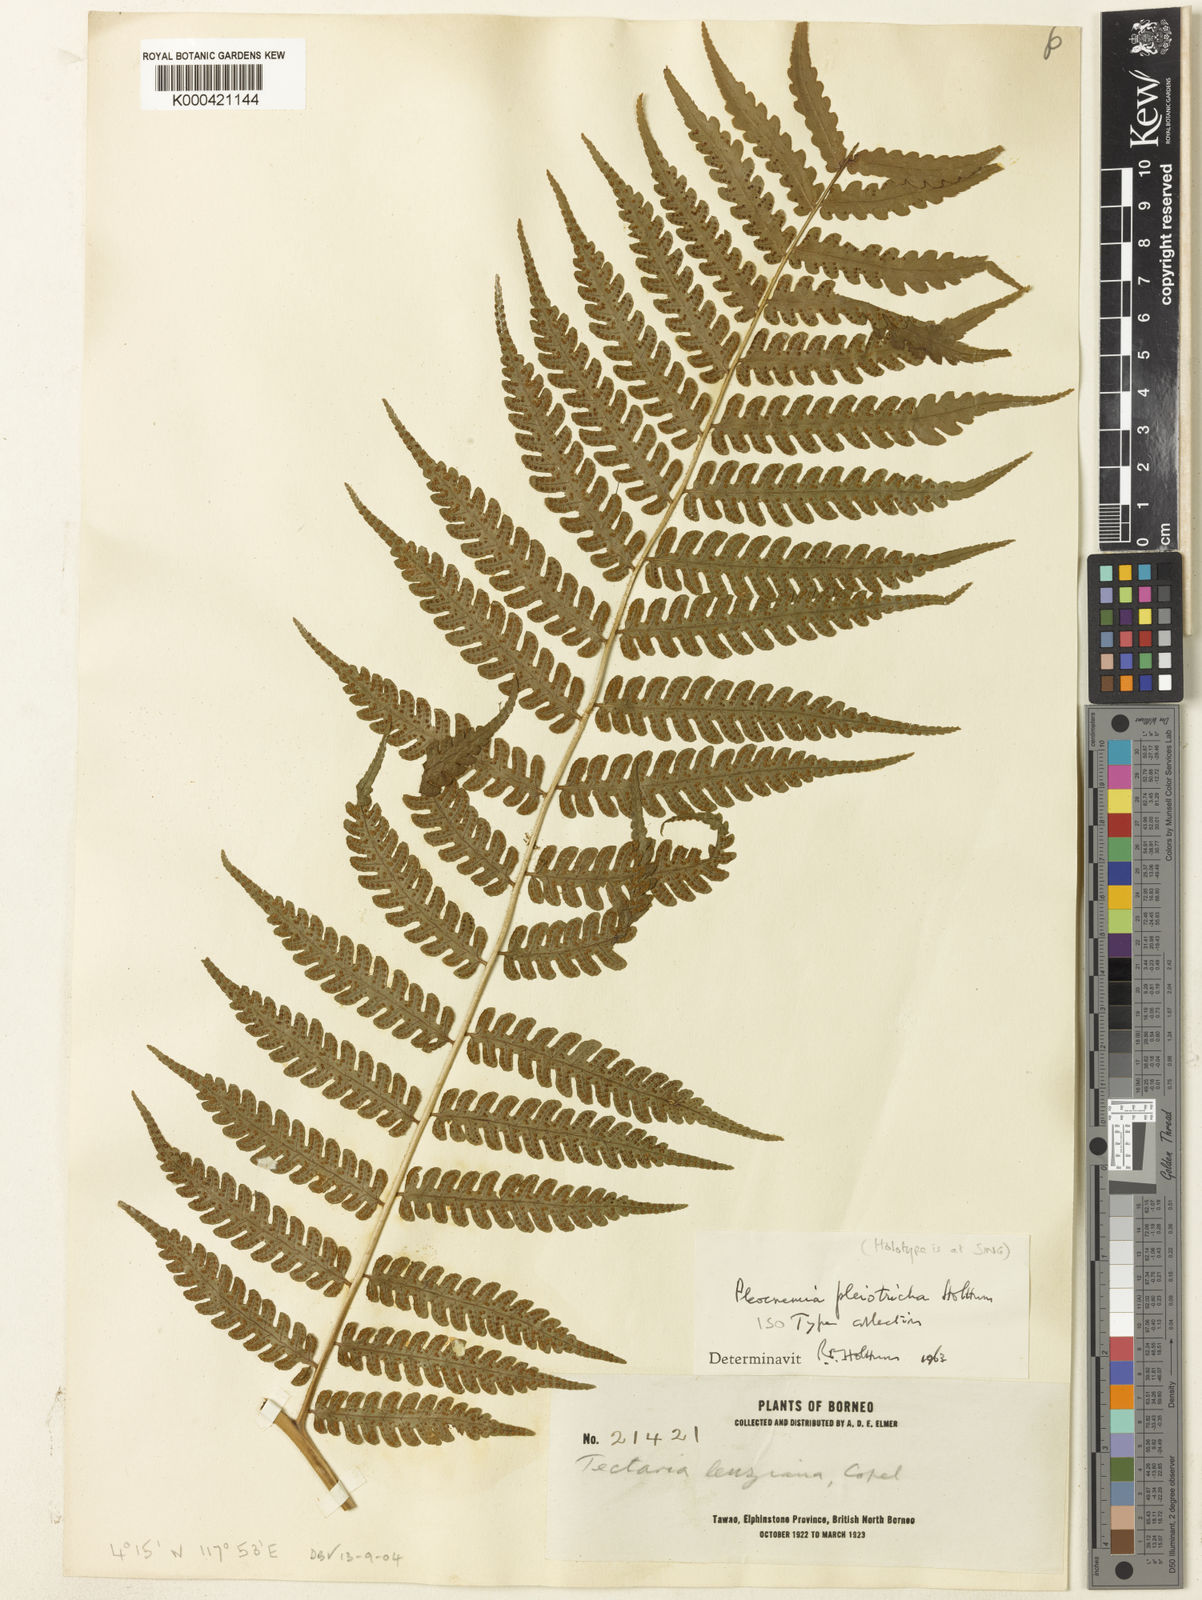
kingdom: Plantae
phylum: Tracheophyta
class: Polypodiopsida
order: Polypodiales
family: Dryopteridaceae
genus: Pleocnemia
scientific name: Pleocnemia pleiotricha
